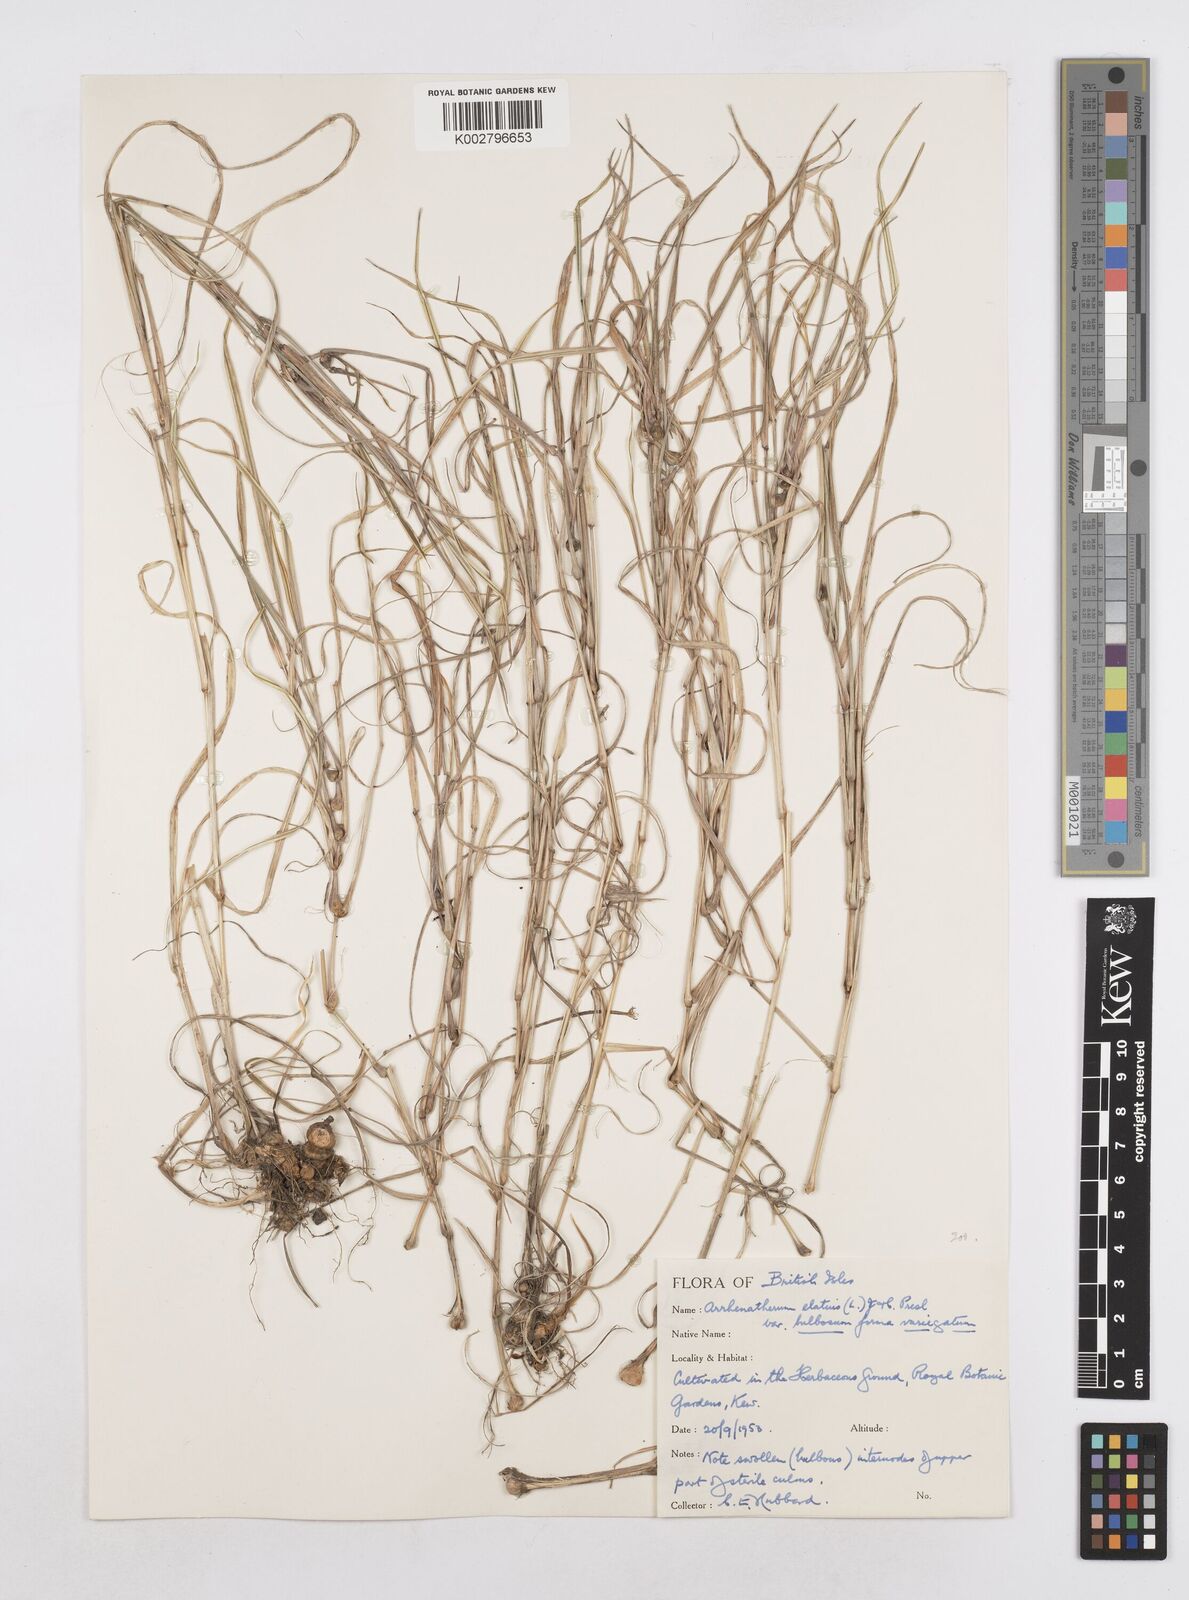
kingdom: Plantae
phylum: Tracheophyta
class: Liliopsida
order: Poales
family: Poaceae
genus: Arrhenatherum
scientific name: Arrhenatherum elatius
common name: Tall oatgrass
